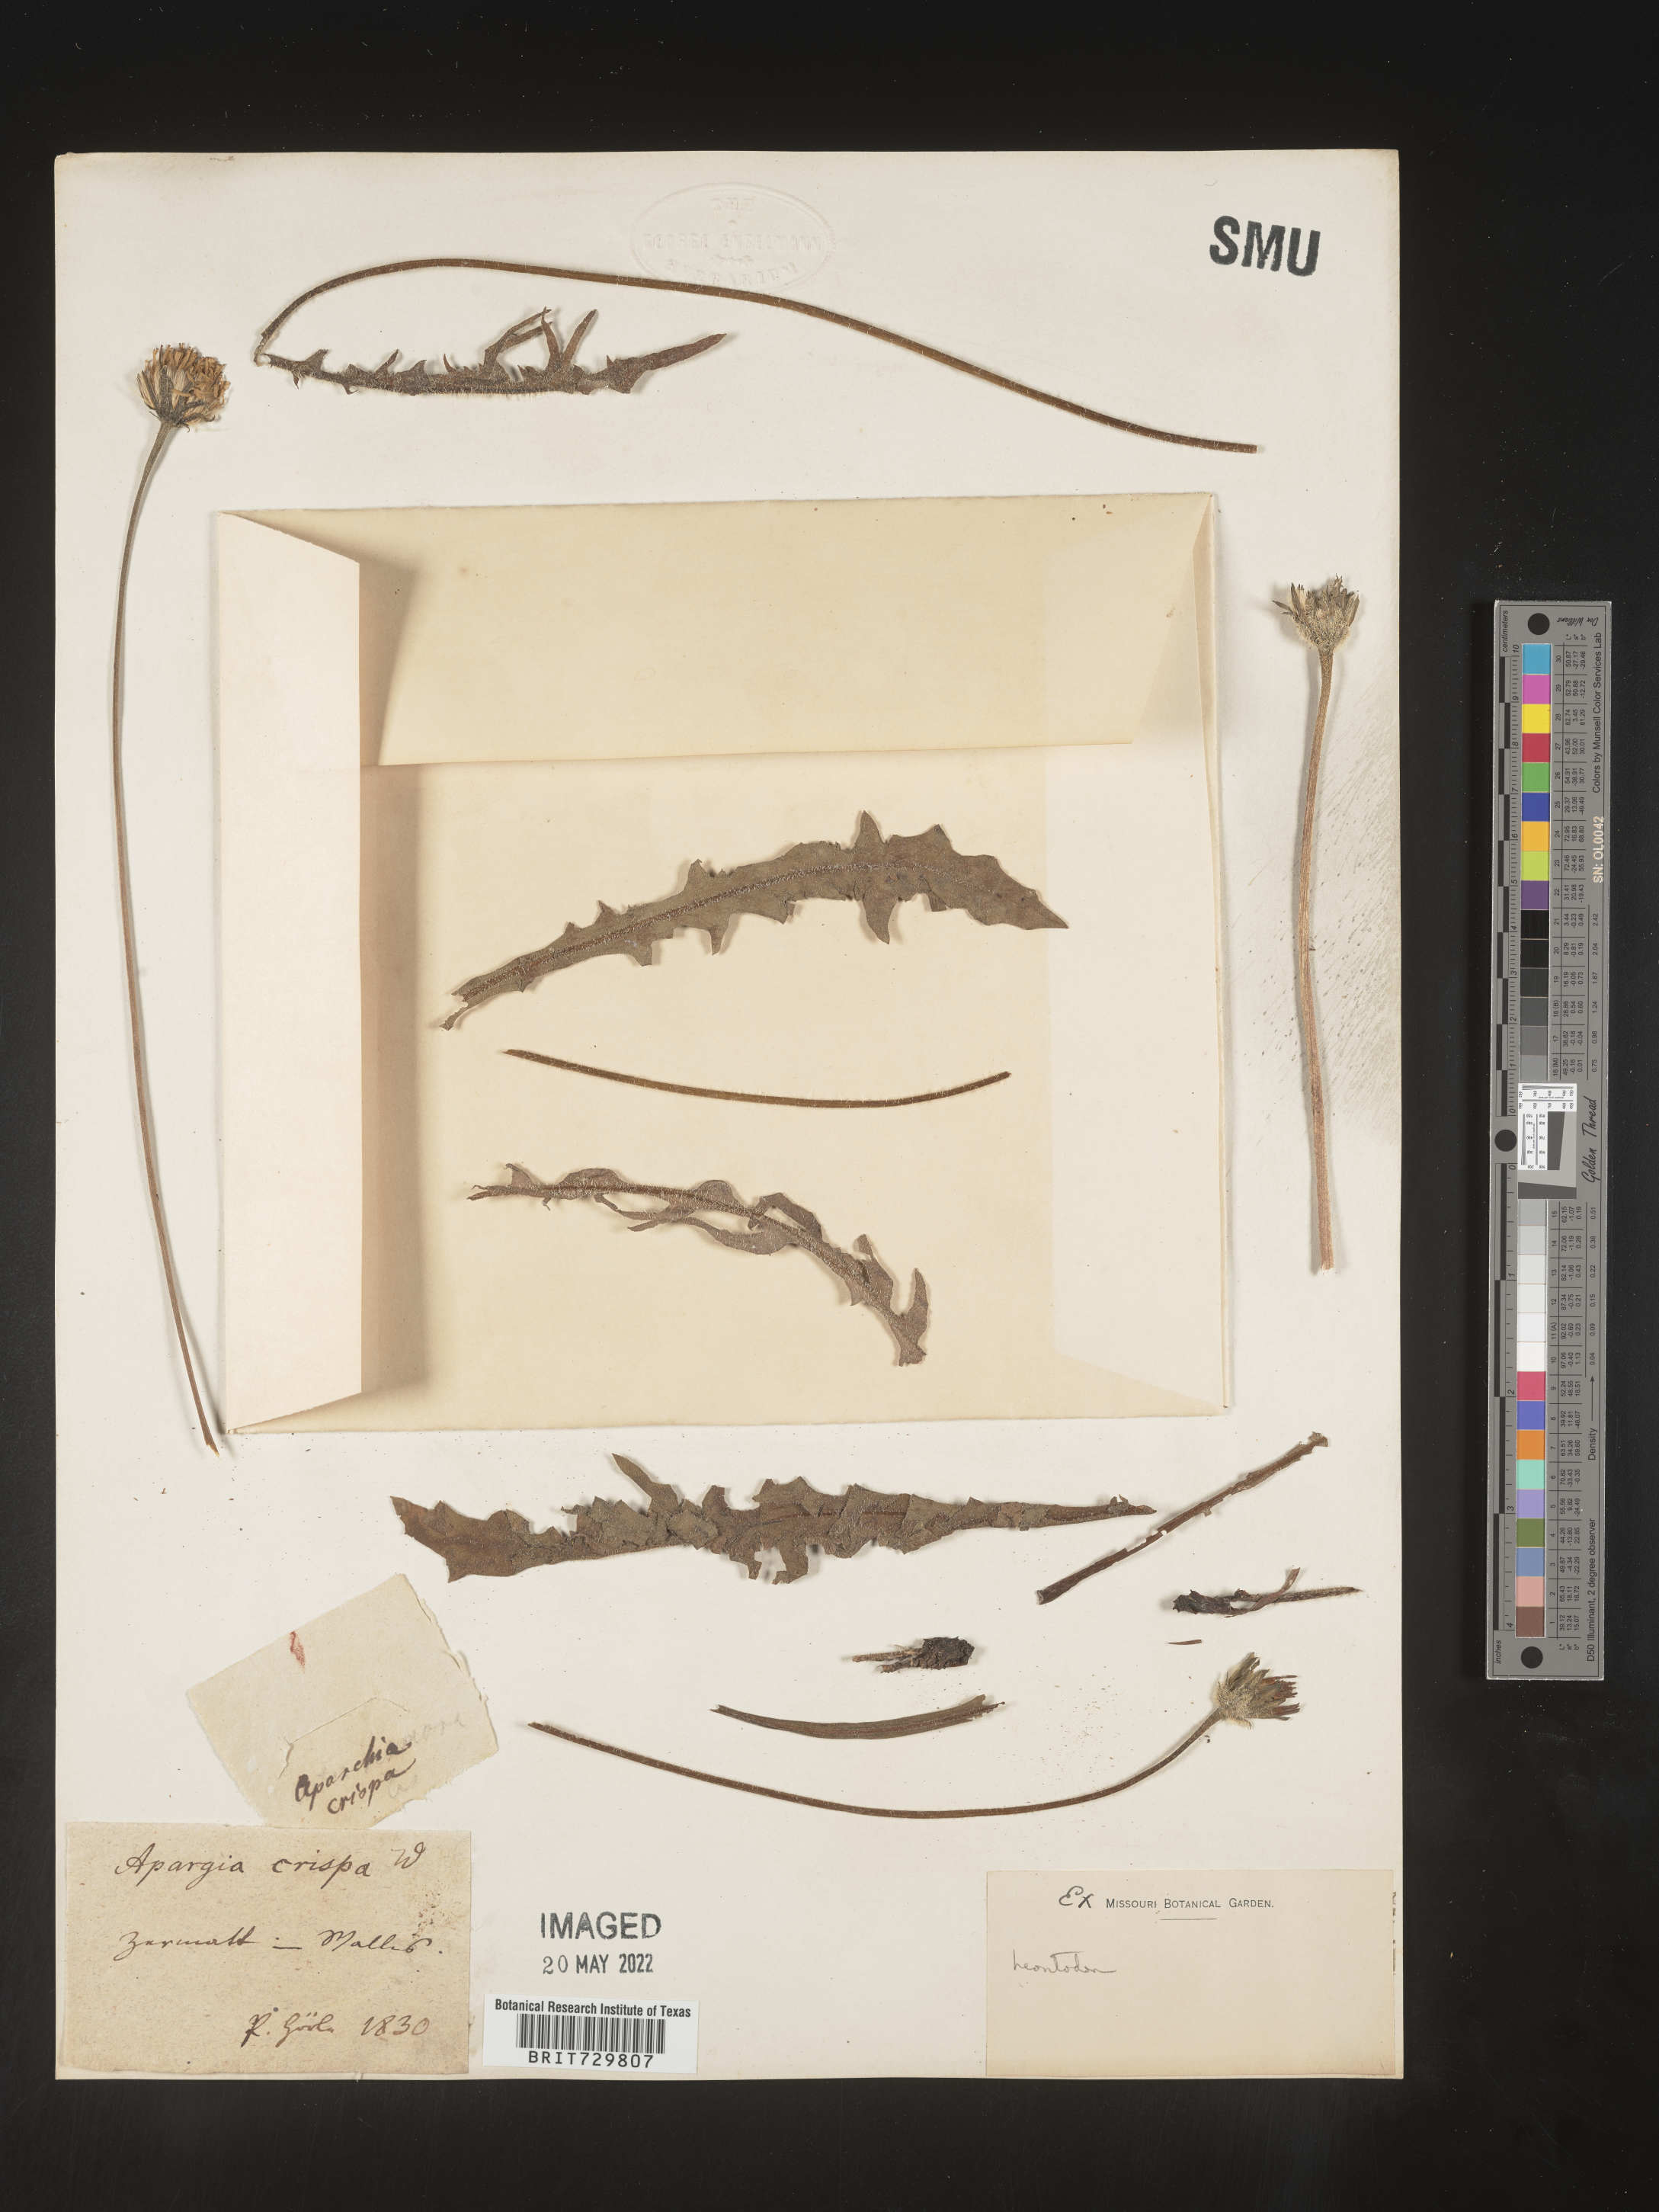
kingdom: Plantae
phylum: Tracheophyta
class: Magnoliopsida
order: Asterales
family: Asteraceae
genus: Leontodon
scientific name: Leontodon
